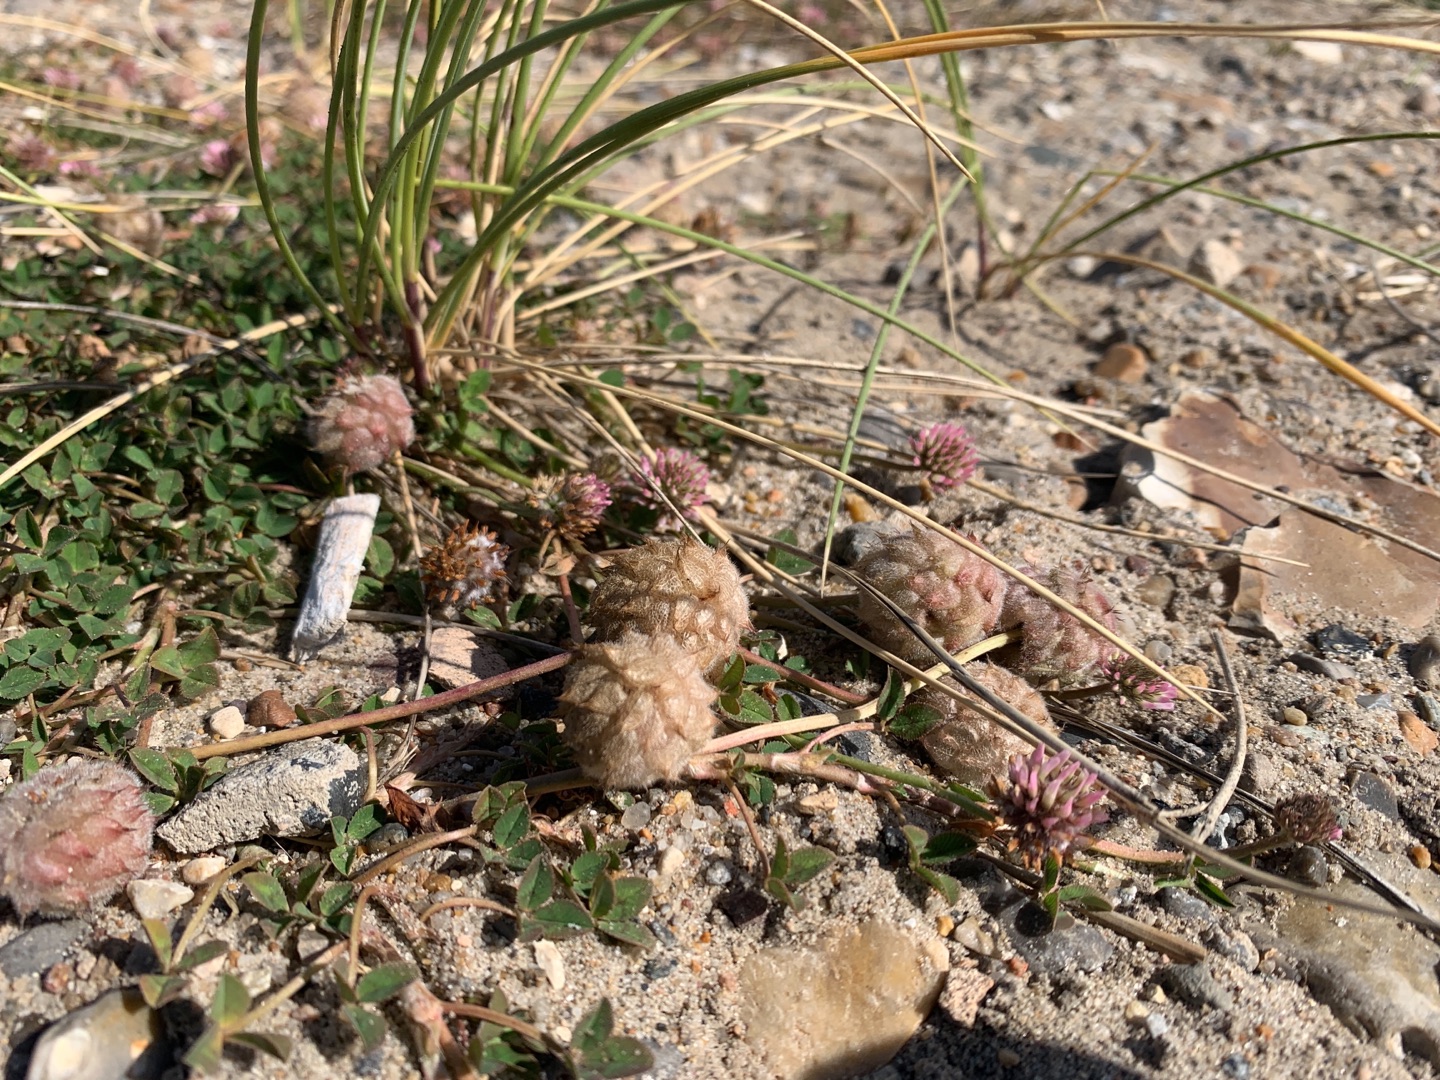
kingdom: Plantae
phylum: Tracheophyta
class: Magnoliopsida
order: Fabales
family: Fabaceae
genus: Trifolium
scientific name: Trifolium fragiferum
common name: Jordbær-kløver
